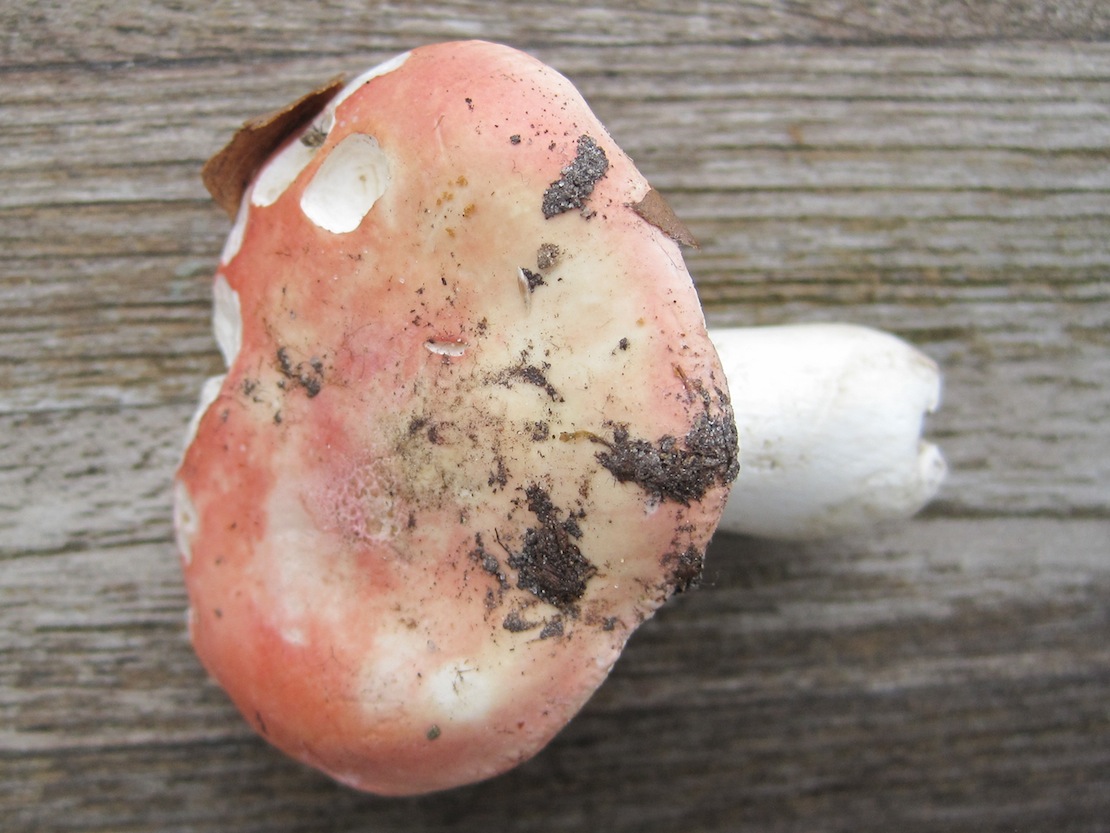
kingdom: Fungi
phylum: Basidiomycota
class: Agaricomycetes
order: Russulales
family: Russulaceae
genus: Russula
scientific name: Russula aurora
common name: rosa skørhat
